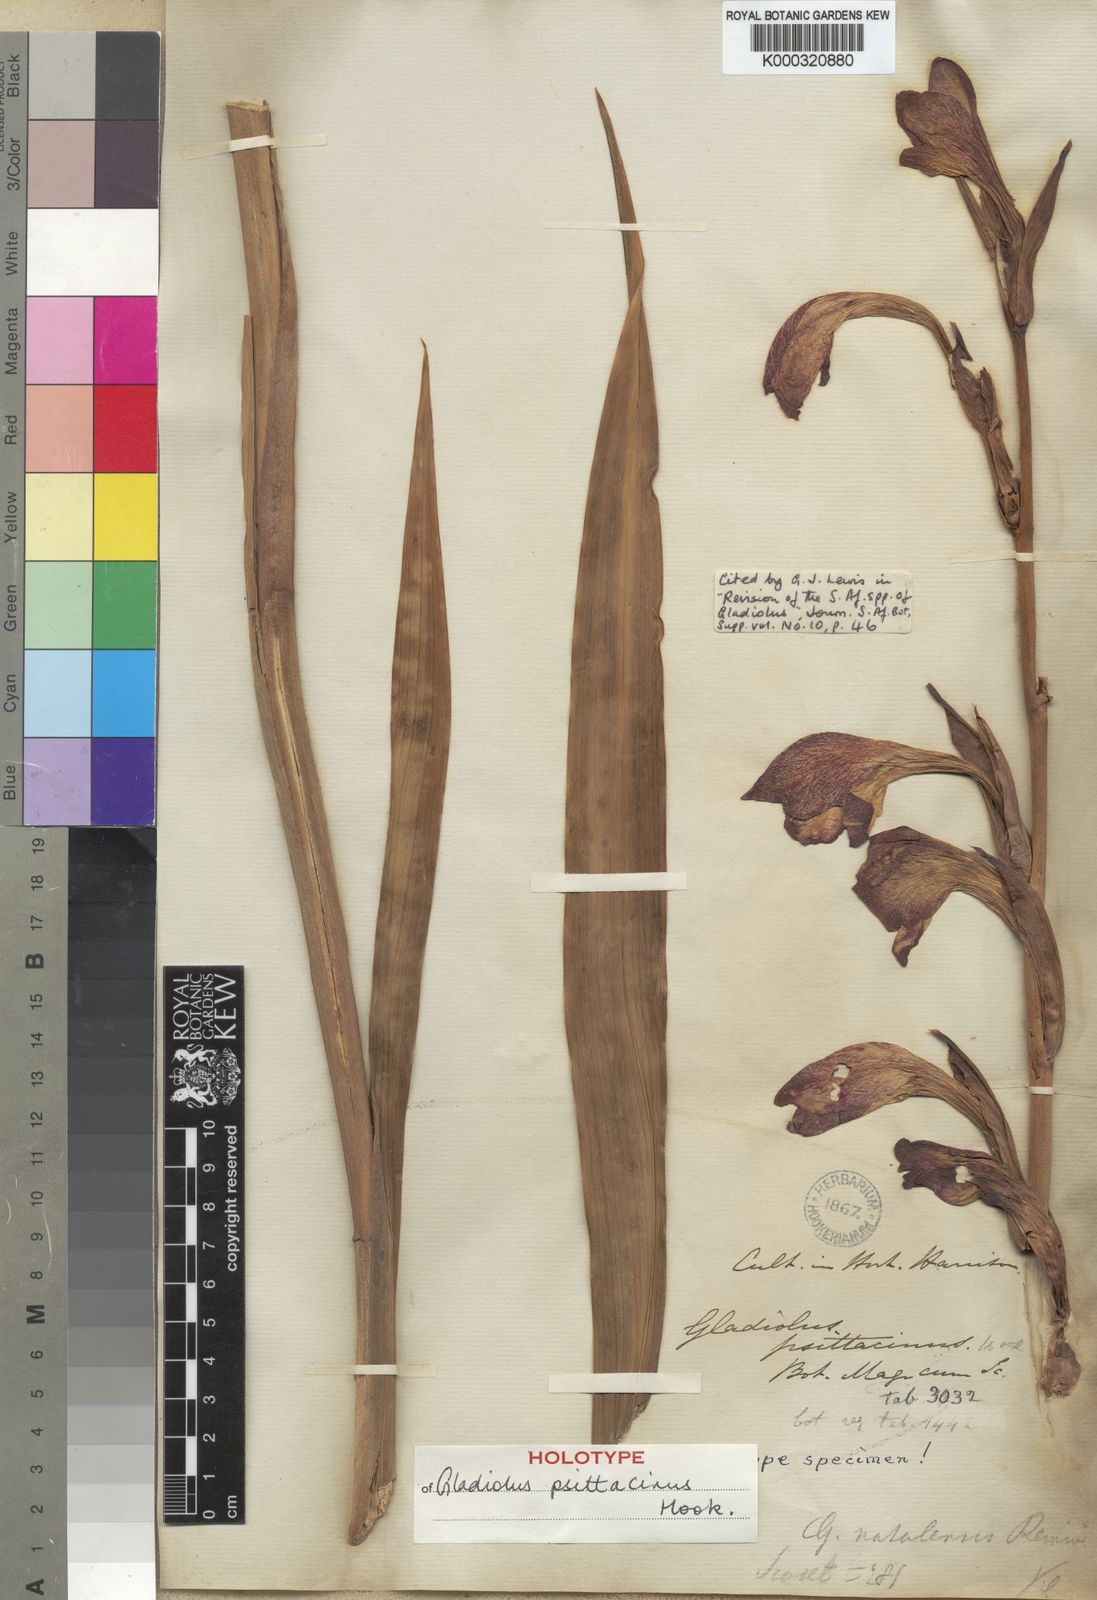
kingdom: Plantae
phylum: Tracheophyta
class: Liliopsida
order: Asparagales
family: Iridaceae
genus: Gladiolus
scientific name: Gladiolus dalenii
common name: Cornflag
